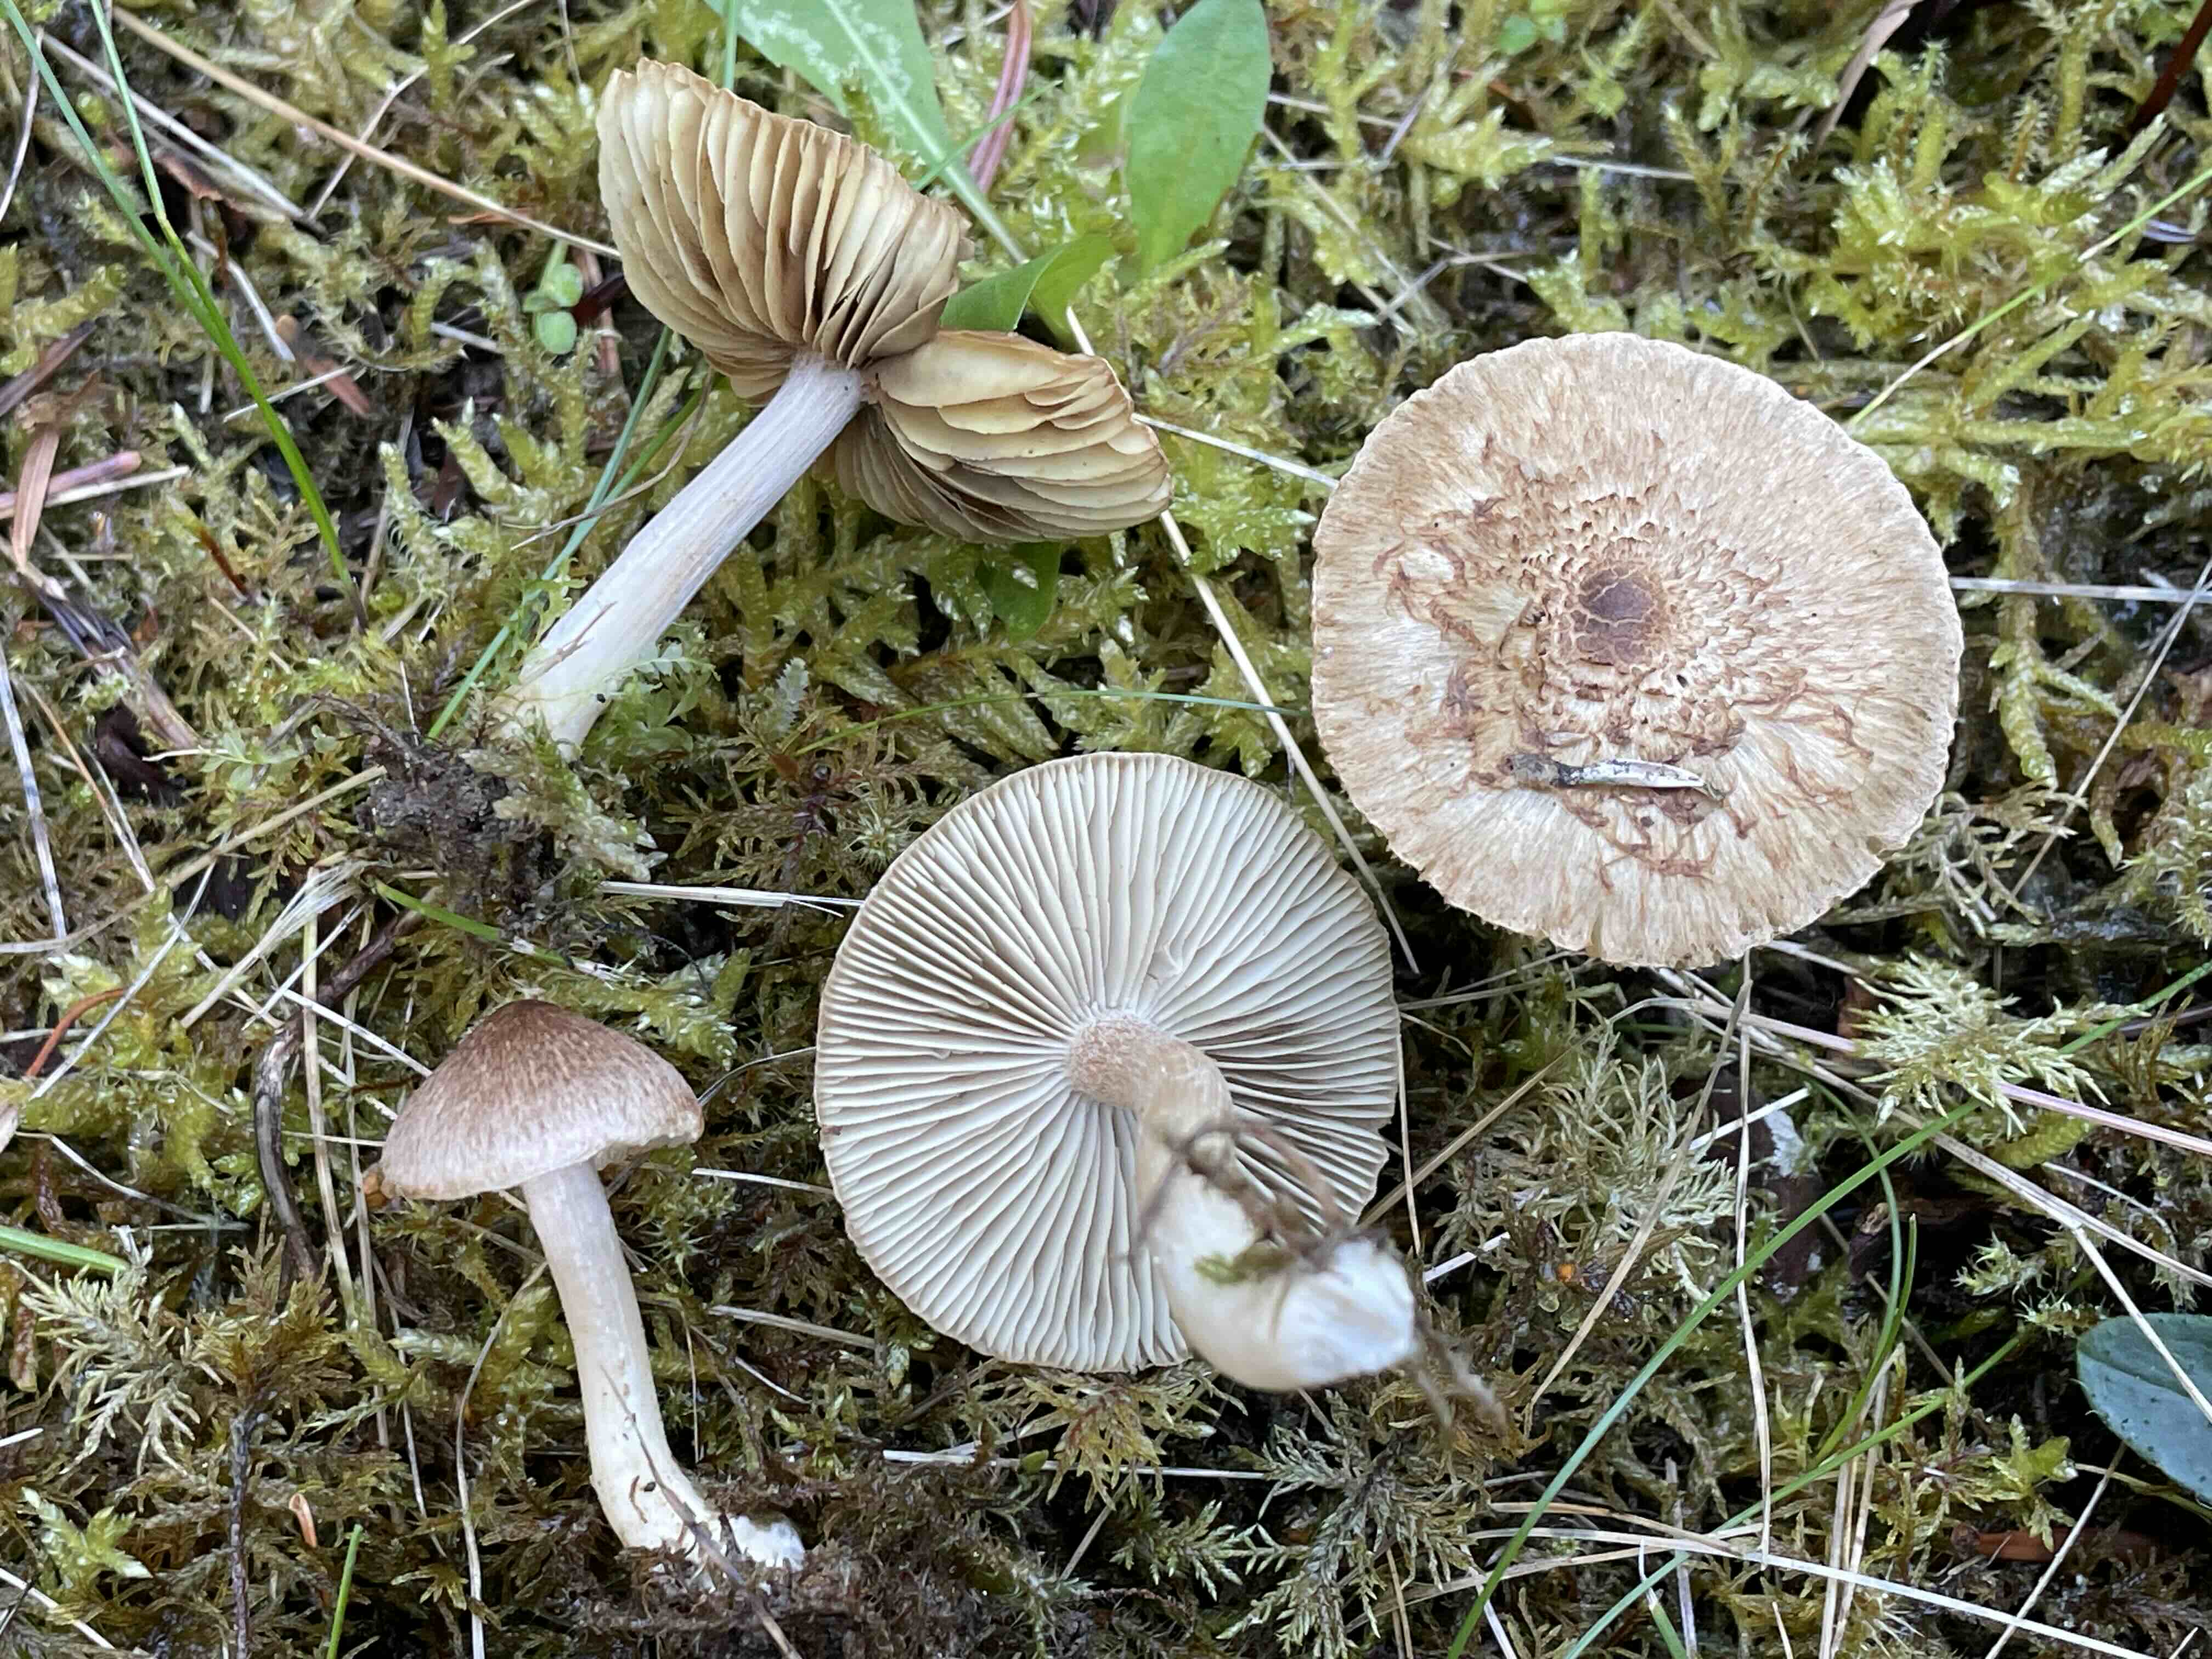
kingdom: Fungi
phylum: Basidiomycota
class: Agaricomycetes
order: Agaricales
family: Inocybaceae
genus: Inocybe
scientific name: Inocybe
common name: trævlhat
